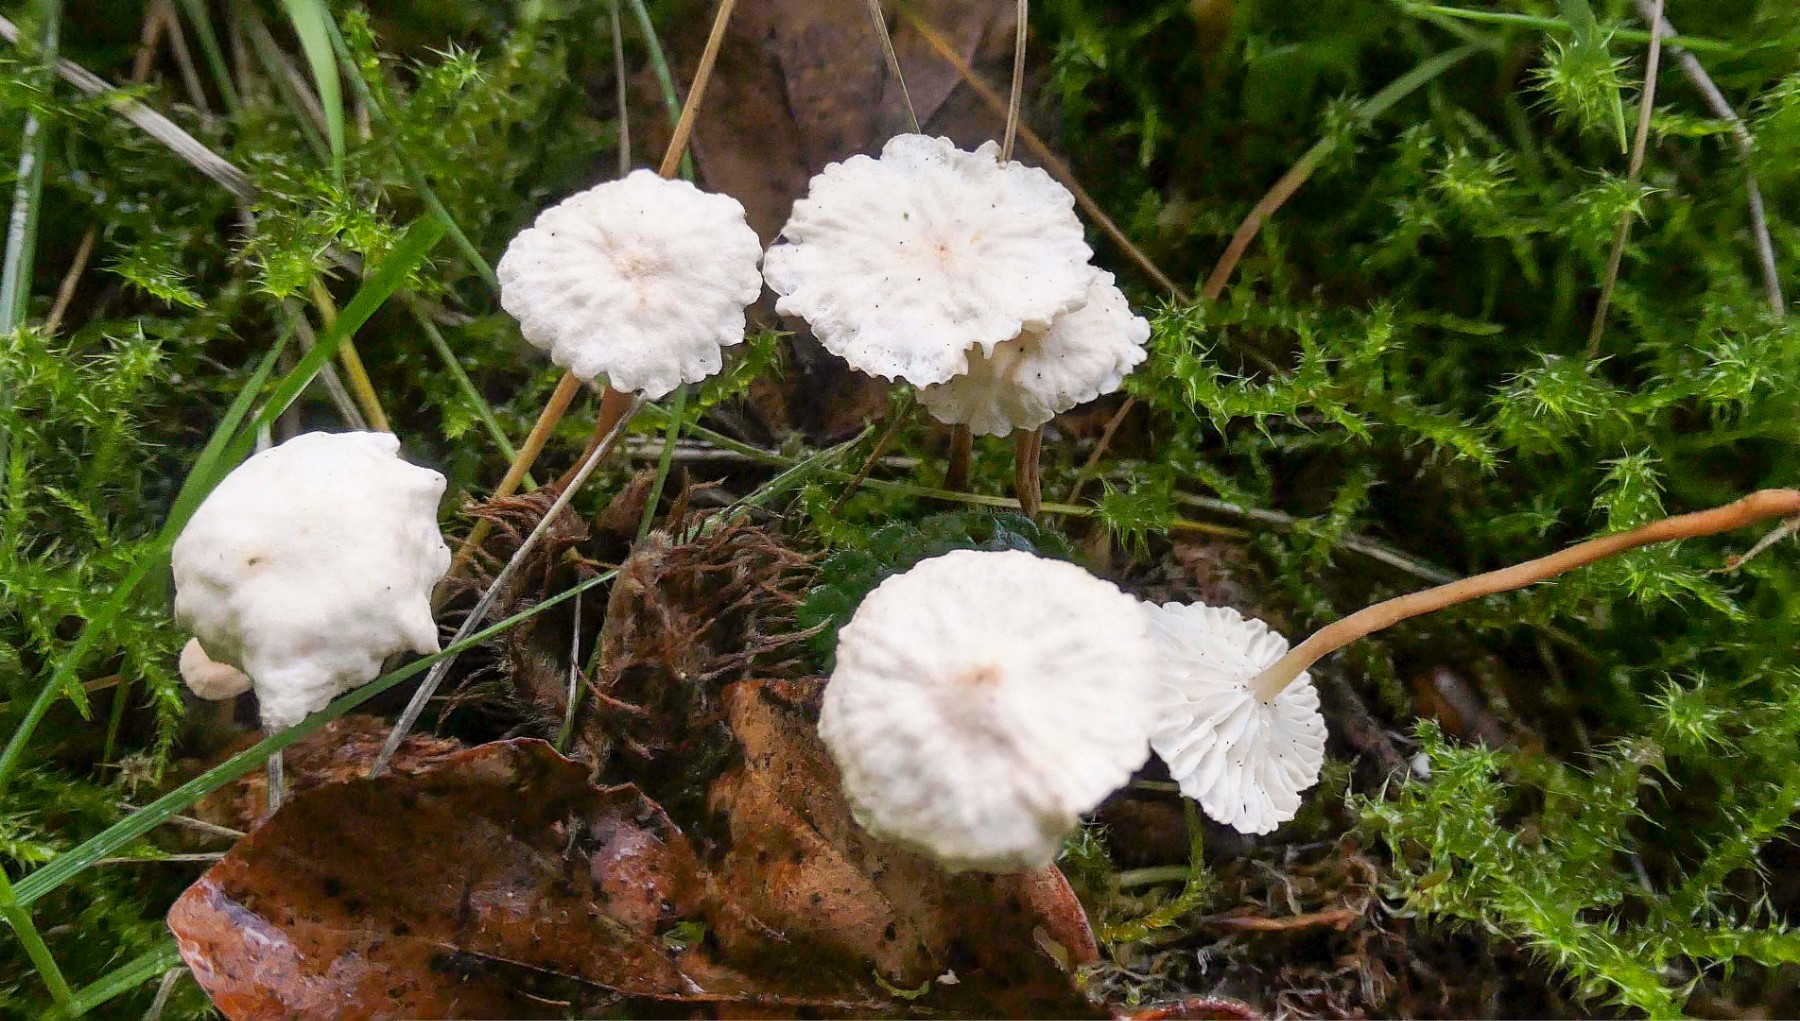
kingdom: Fungi
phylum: Basidiomycota
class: Agaricomycetes
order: Agaricales
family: Omphalotaceae
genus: Collybiopsis
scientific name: Collybiopsis vaillantii
